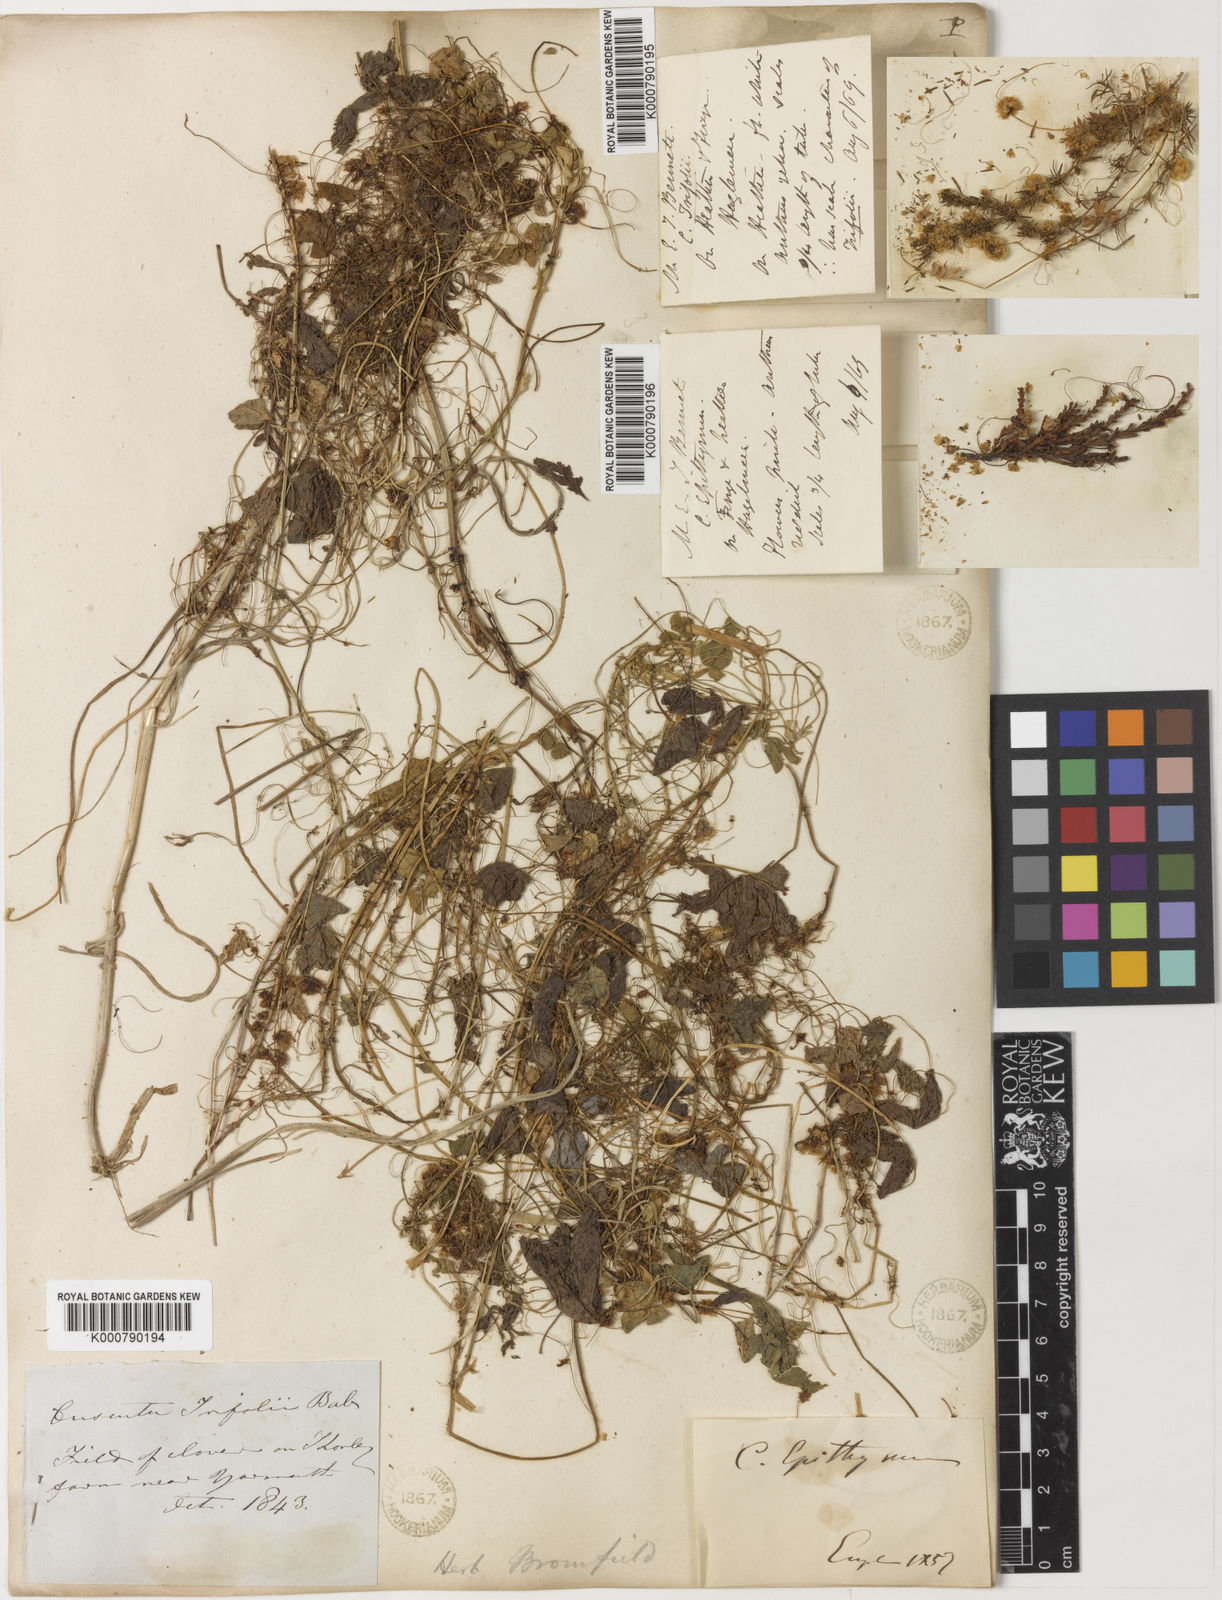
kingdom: Plantae
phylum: Tracheophyta
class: Magnoliopsida
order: Solanales
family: Convolvulaceae
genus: Cuscuta
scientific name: Cuscuta epithymum
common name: Clover dodder
